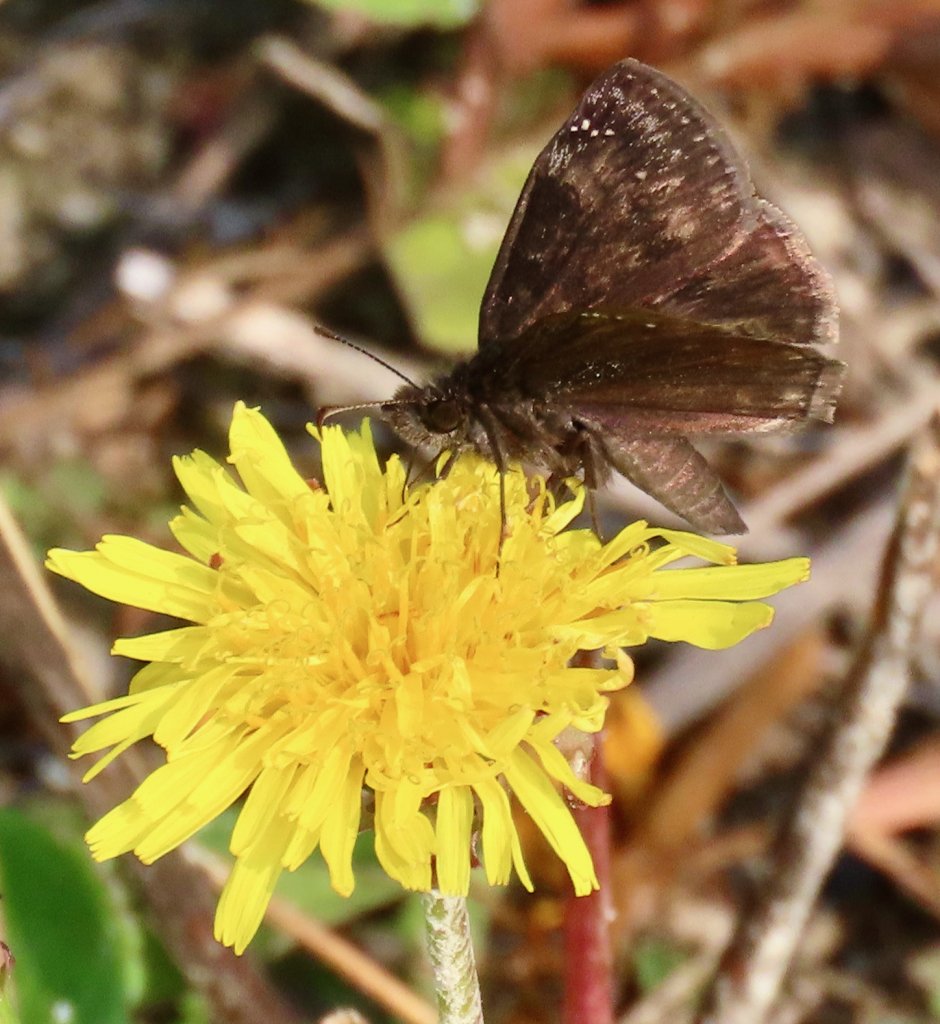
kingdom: Animalia
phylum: Arthropoda
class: Insecta
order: Lepidoptera
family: Hesperiidae
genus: Gesta
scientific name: Gesta
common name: Wild Indigo Duskywing
